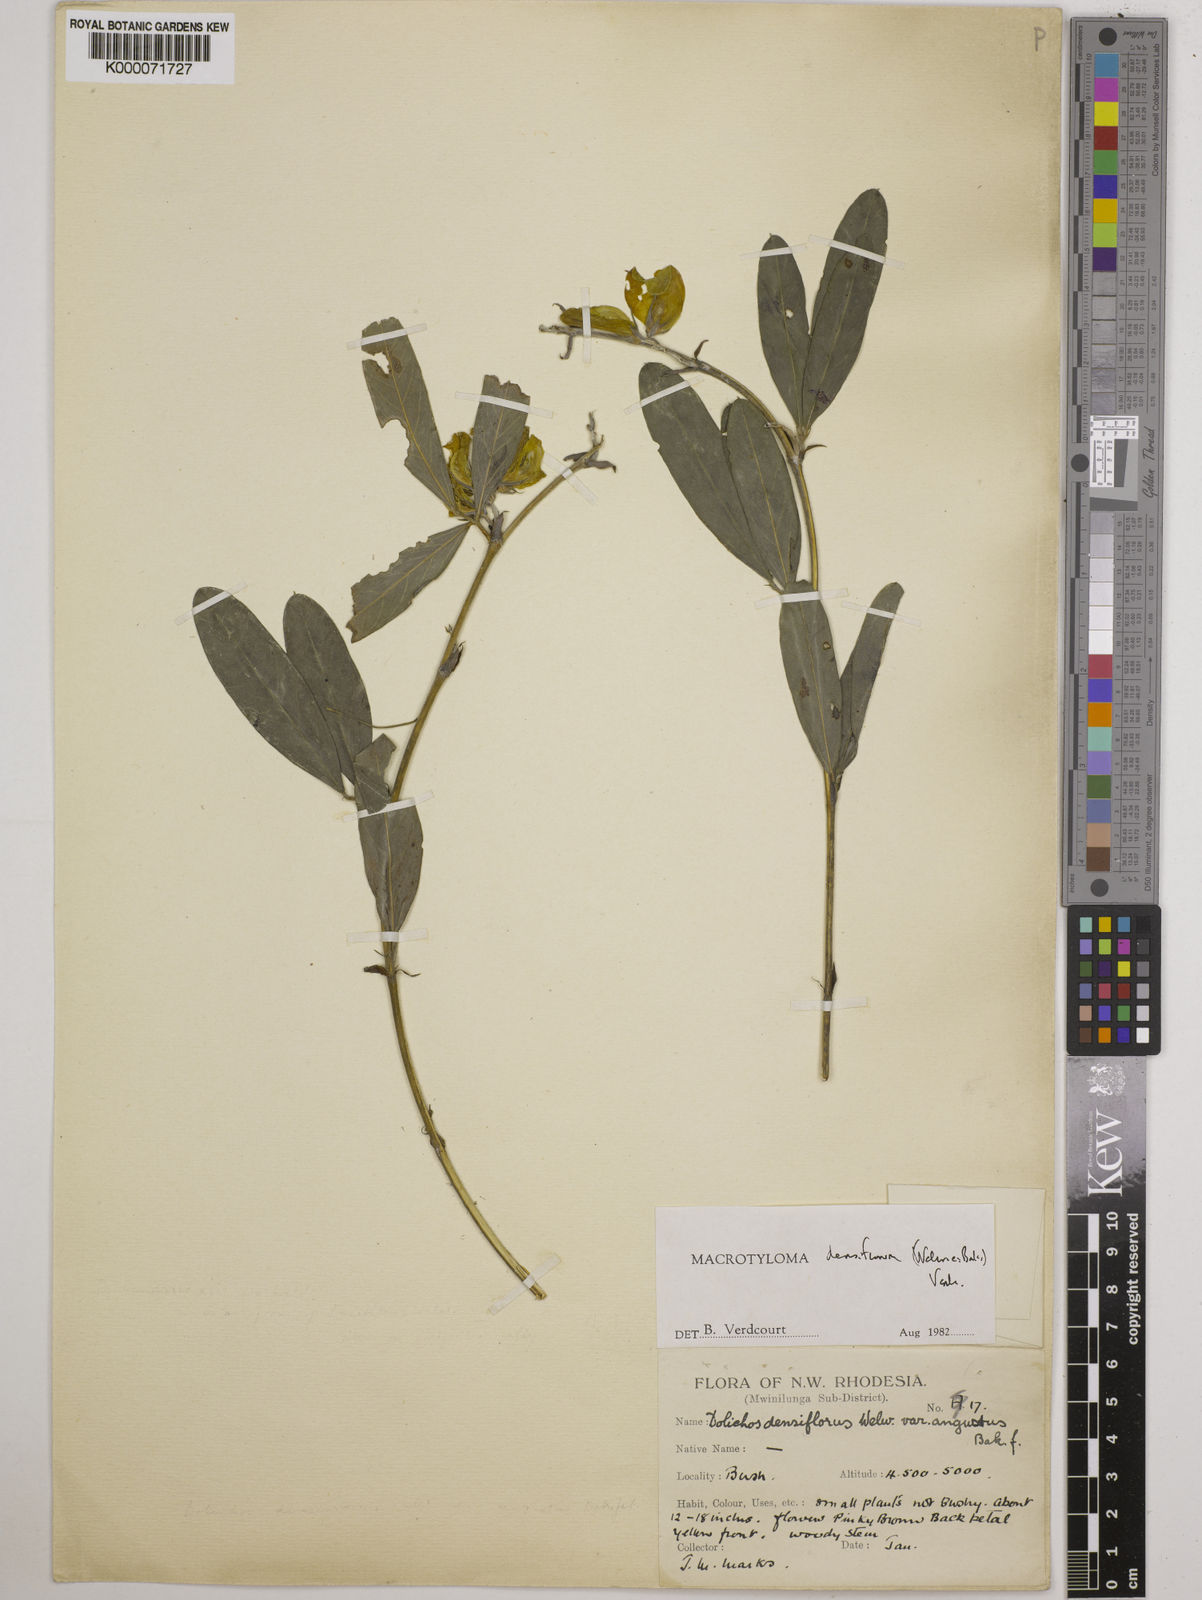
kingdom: Plantae
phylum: Tracheophyta
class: Magnoliopsida
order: Fabales
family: Fabaceae
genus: Macrotyloma
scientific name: Macrotyloma densiflorum
